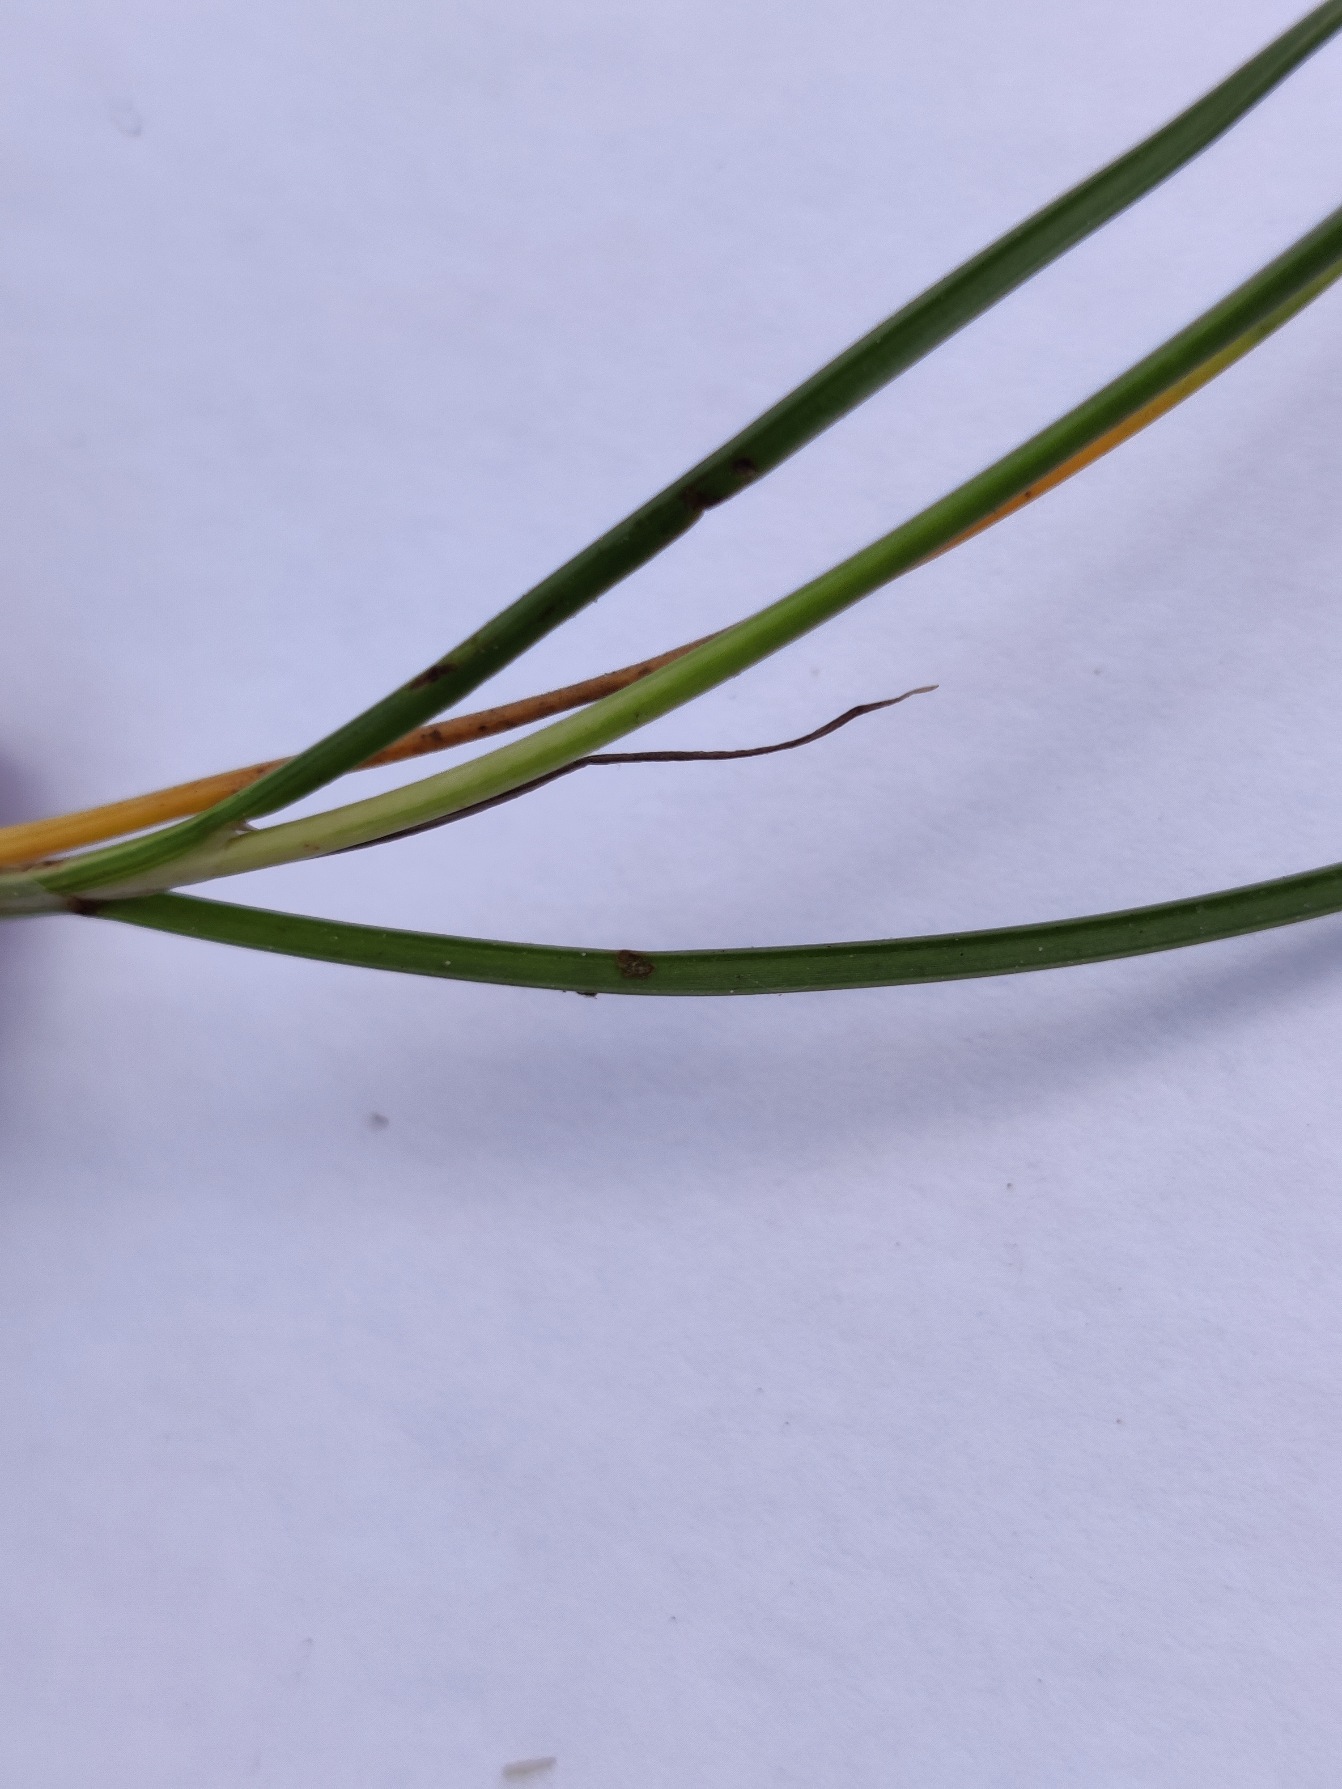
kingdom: Plantae
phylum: Tracheophyta
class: Liliopsida
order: Poales
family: Juncaceae
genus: Juncus
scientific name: Juncus gerardi
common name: Harril
